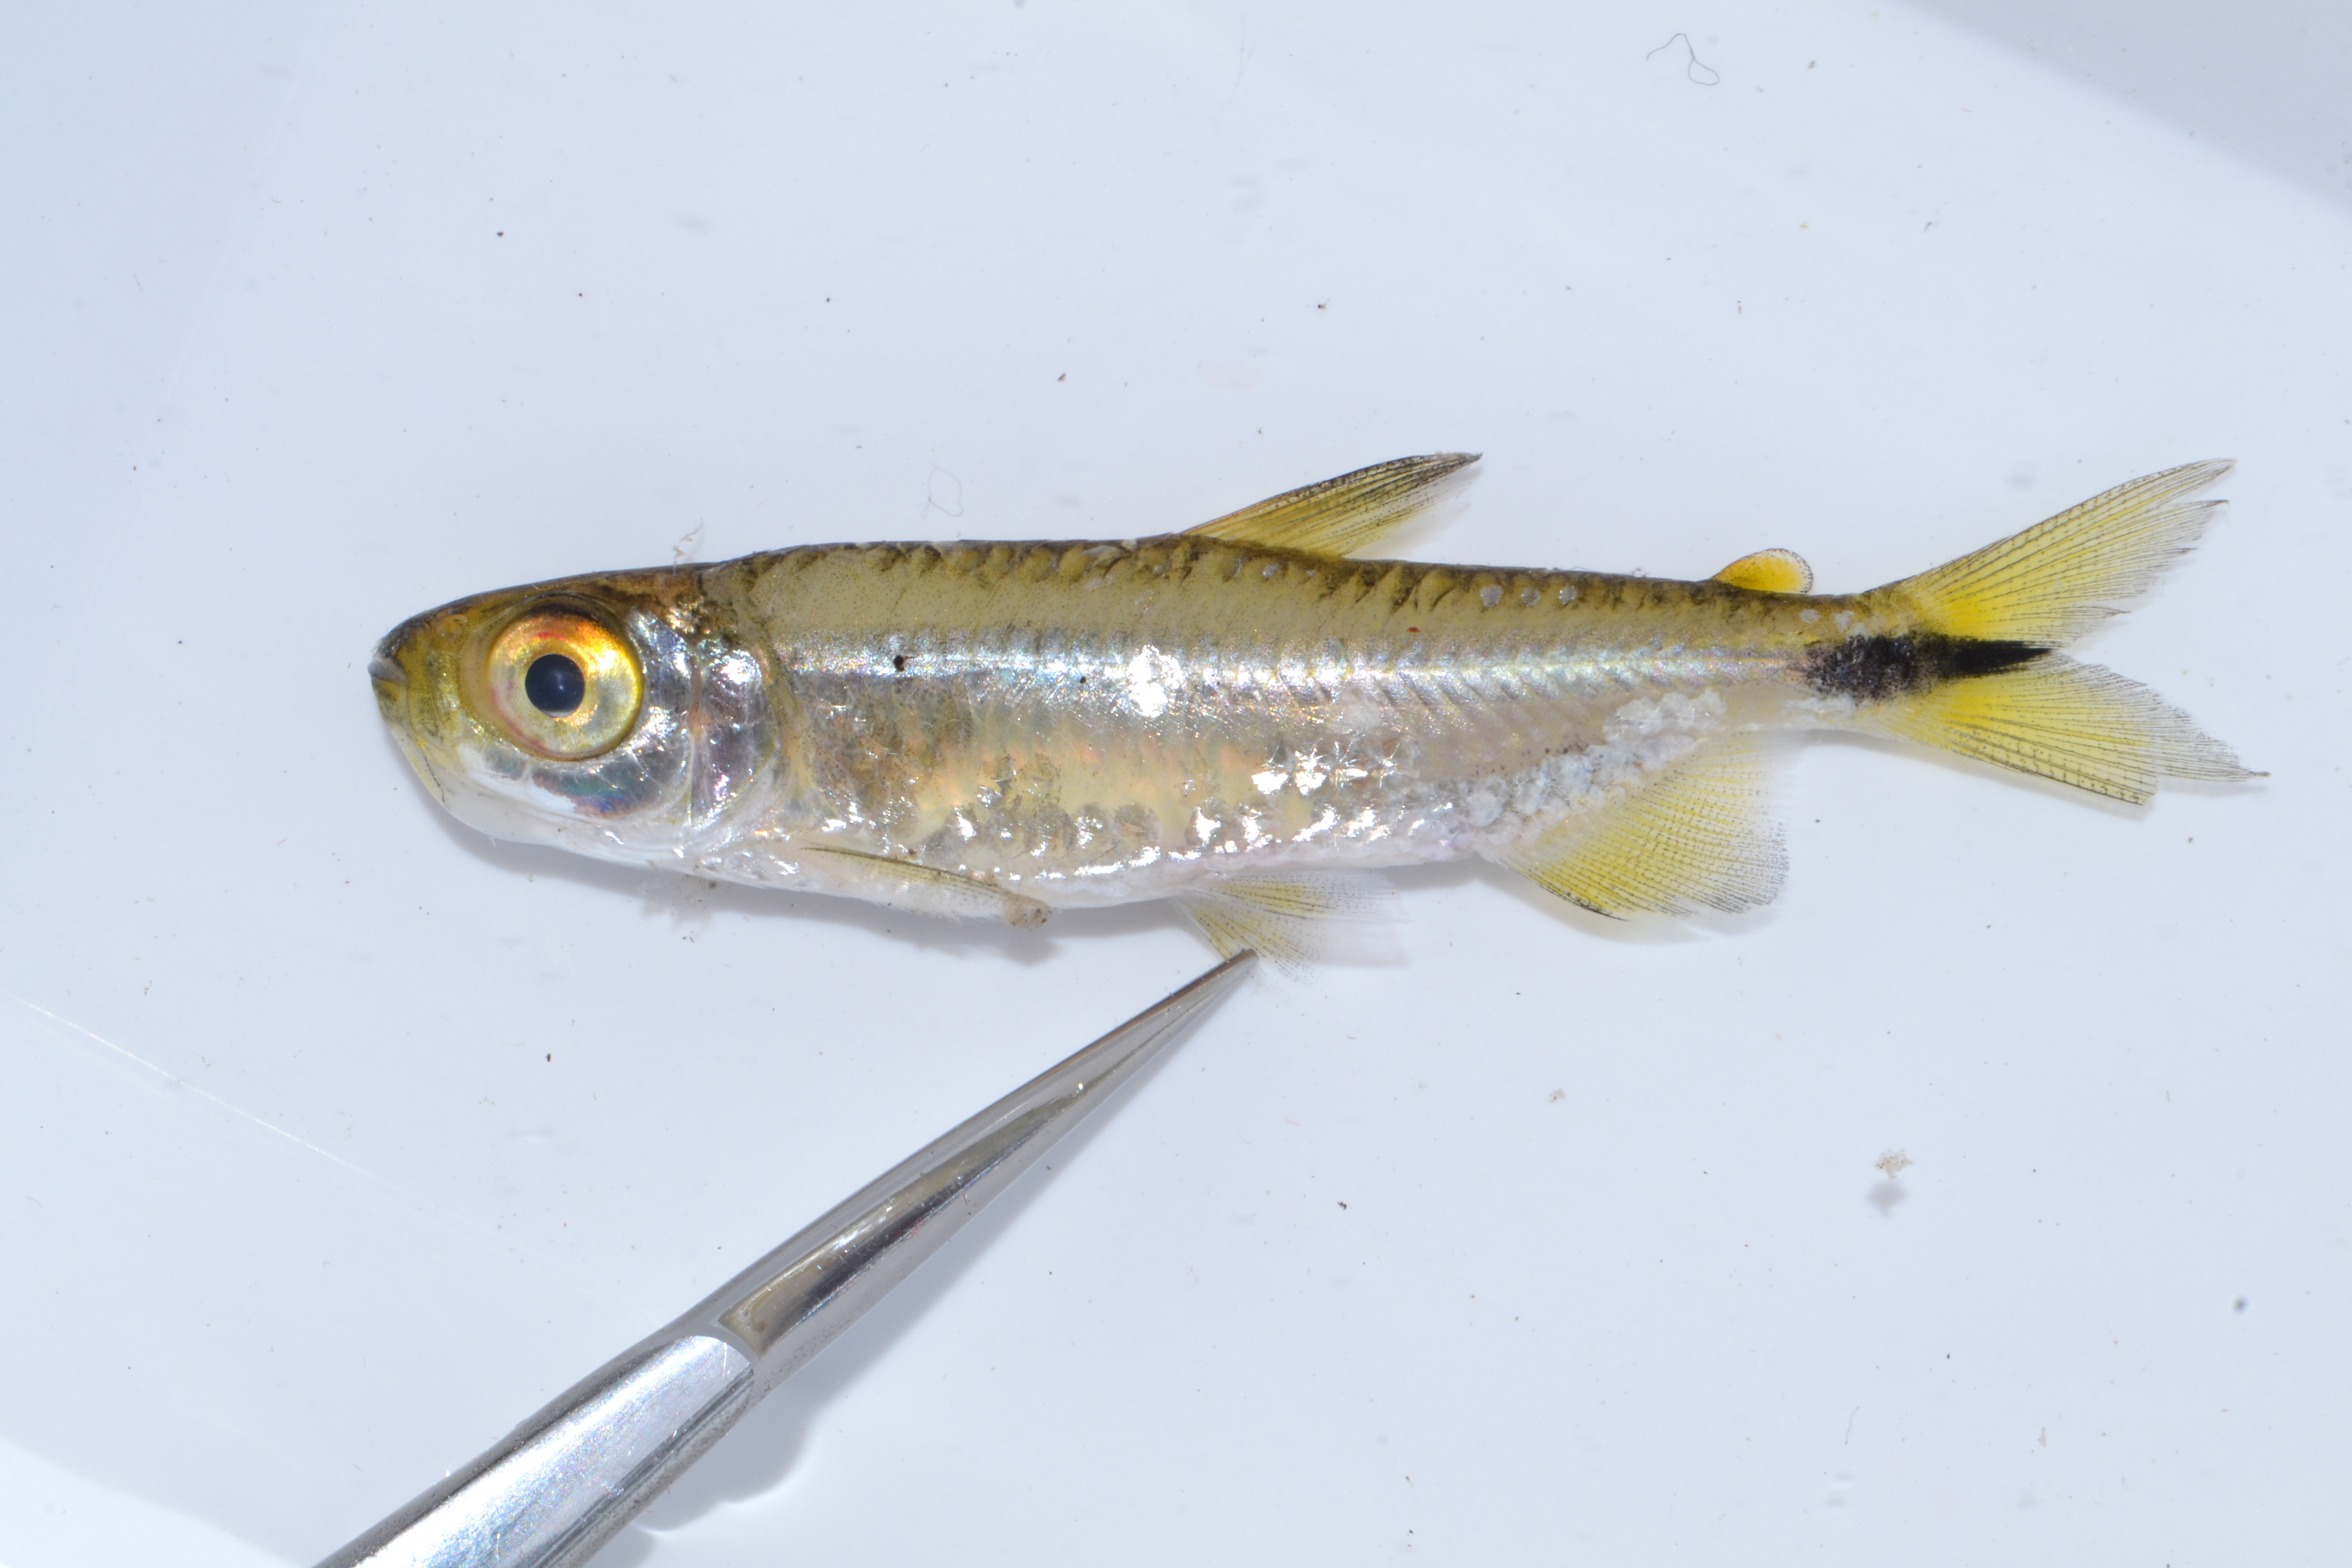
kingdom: Animalia
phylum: Chordata
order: Characiformes
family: Alestidae
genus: Brycinus
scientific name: Brycinus lateralis
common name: Striped robber
